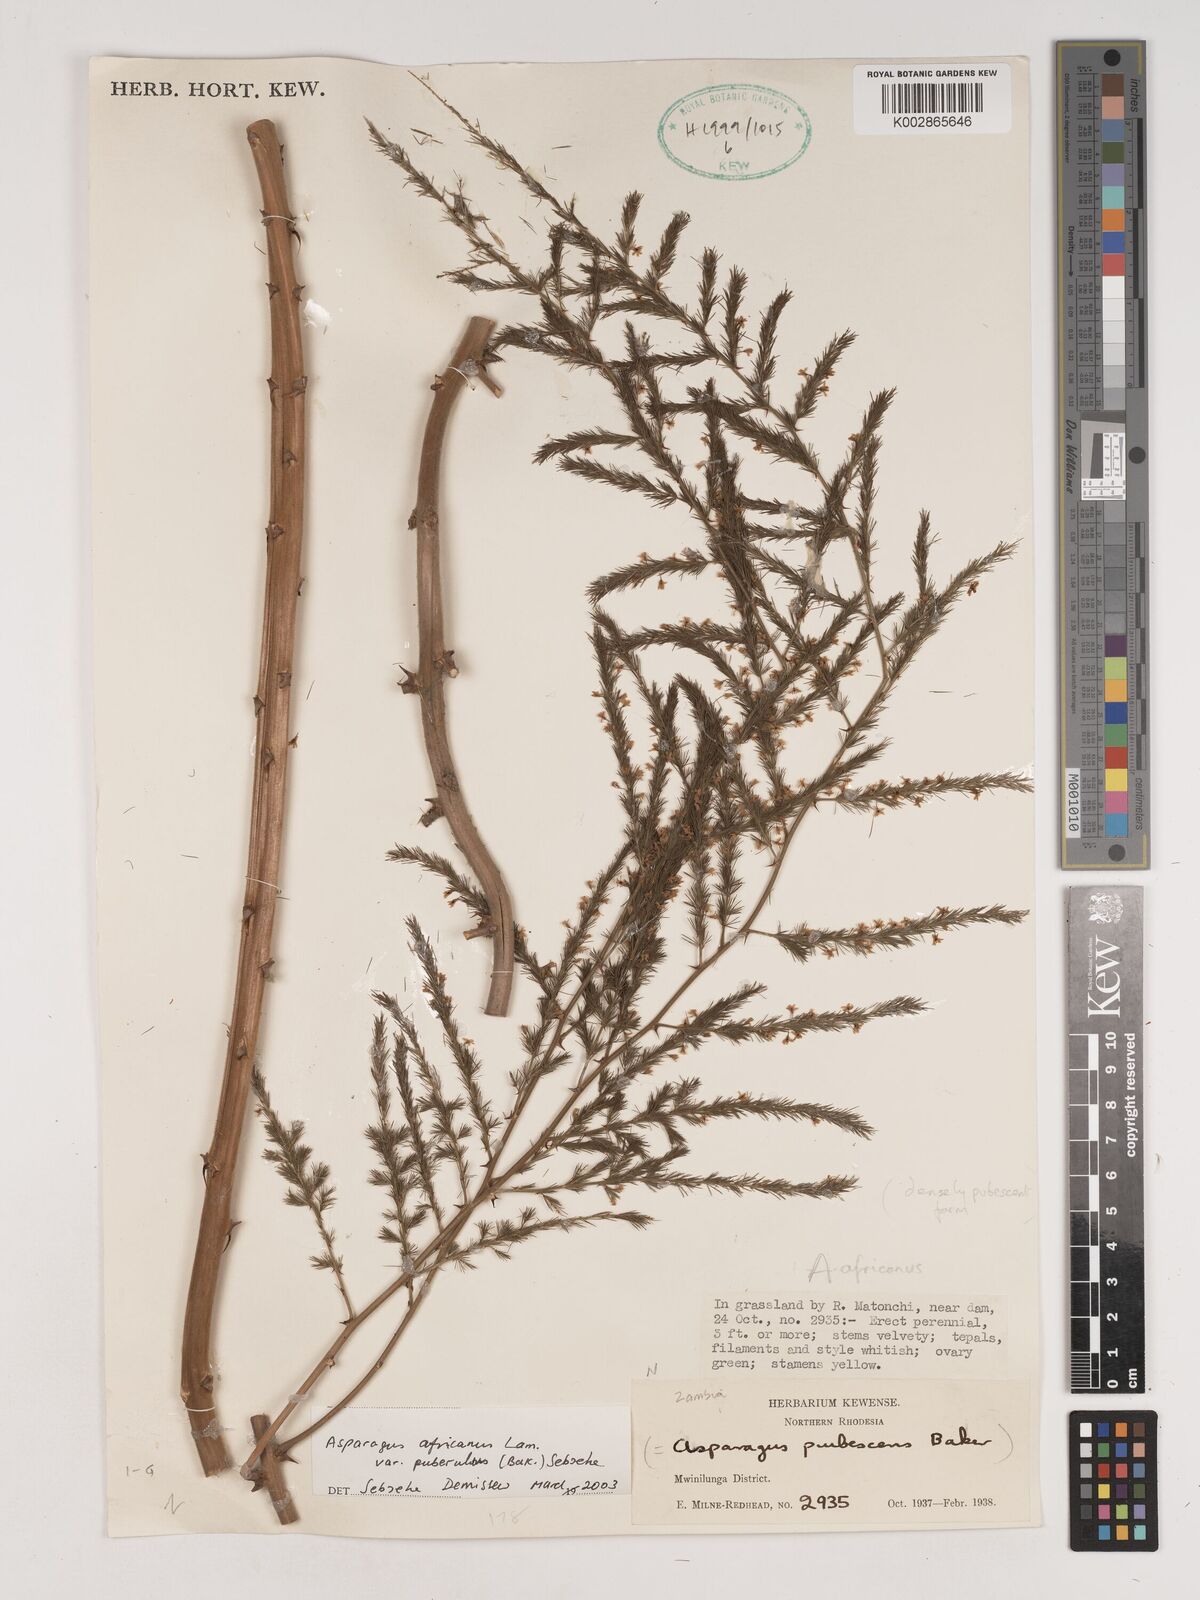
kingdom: Plantae
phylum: Tracheophyta
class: Liliopsida
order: Asparagales
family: Asparagaceae
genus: Asparagus
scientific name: Asparagus africanus
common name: Asparagus-fern
